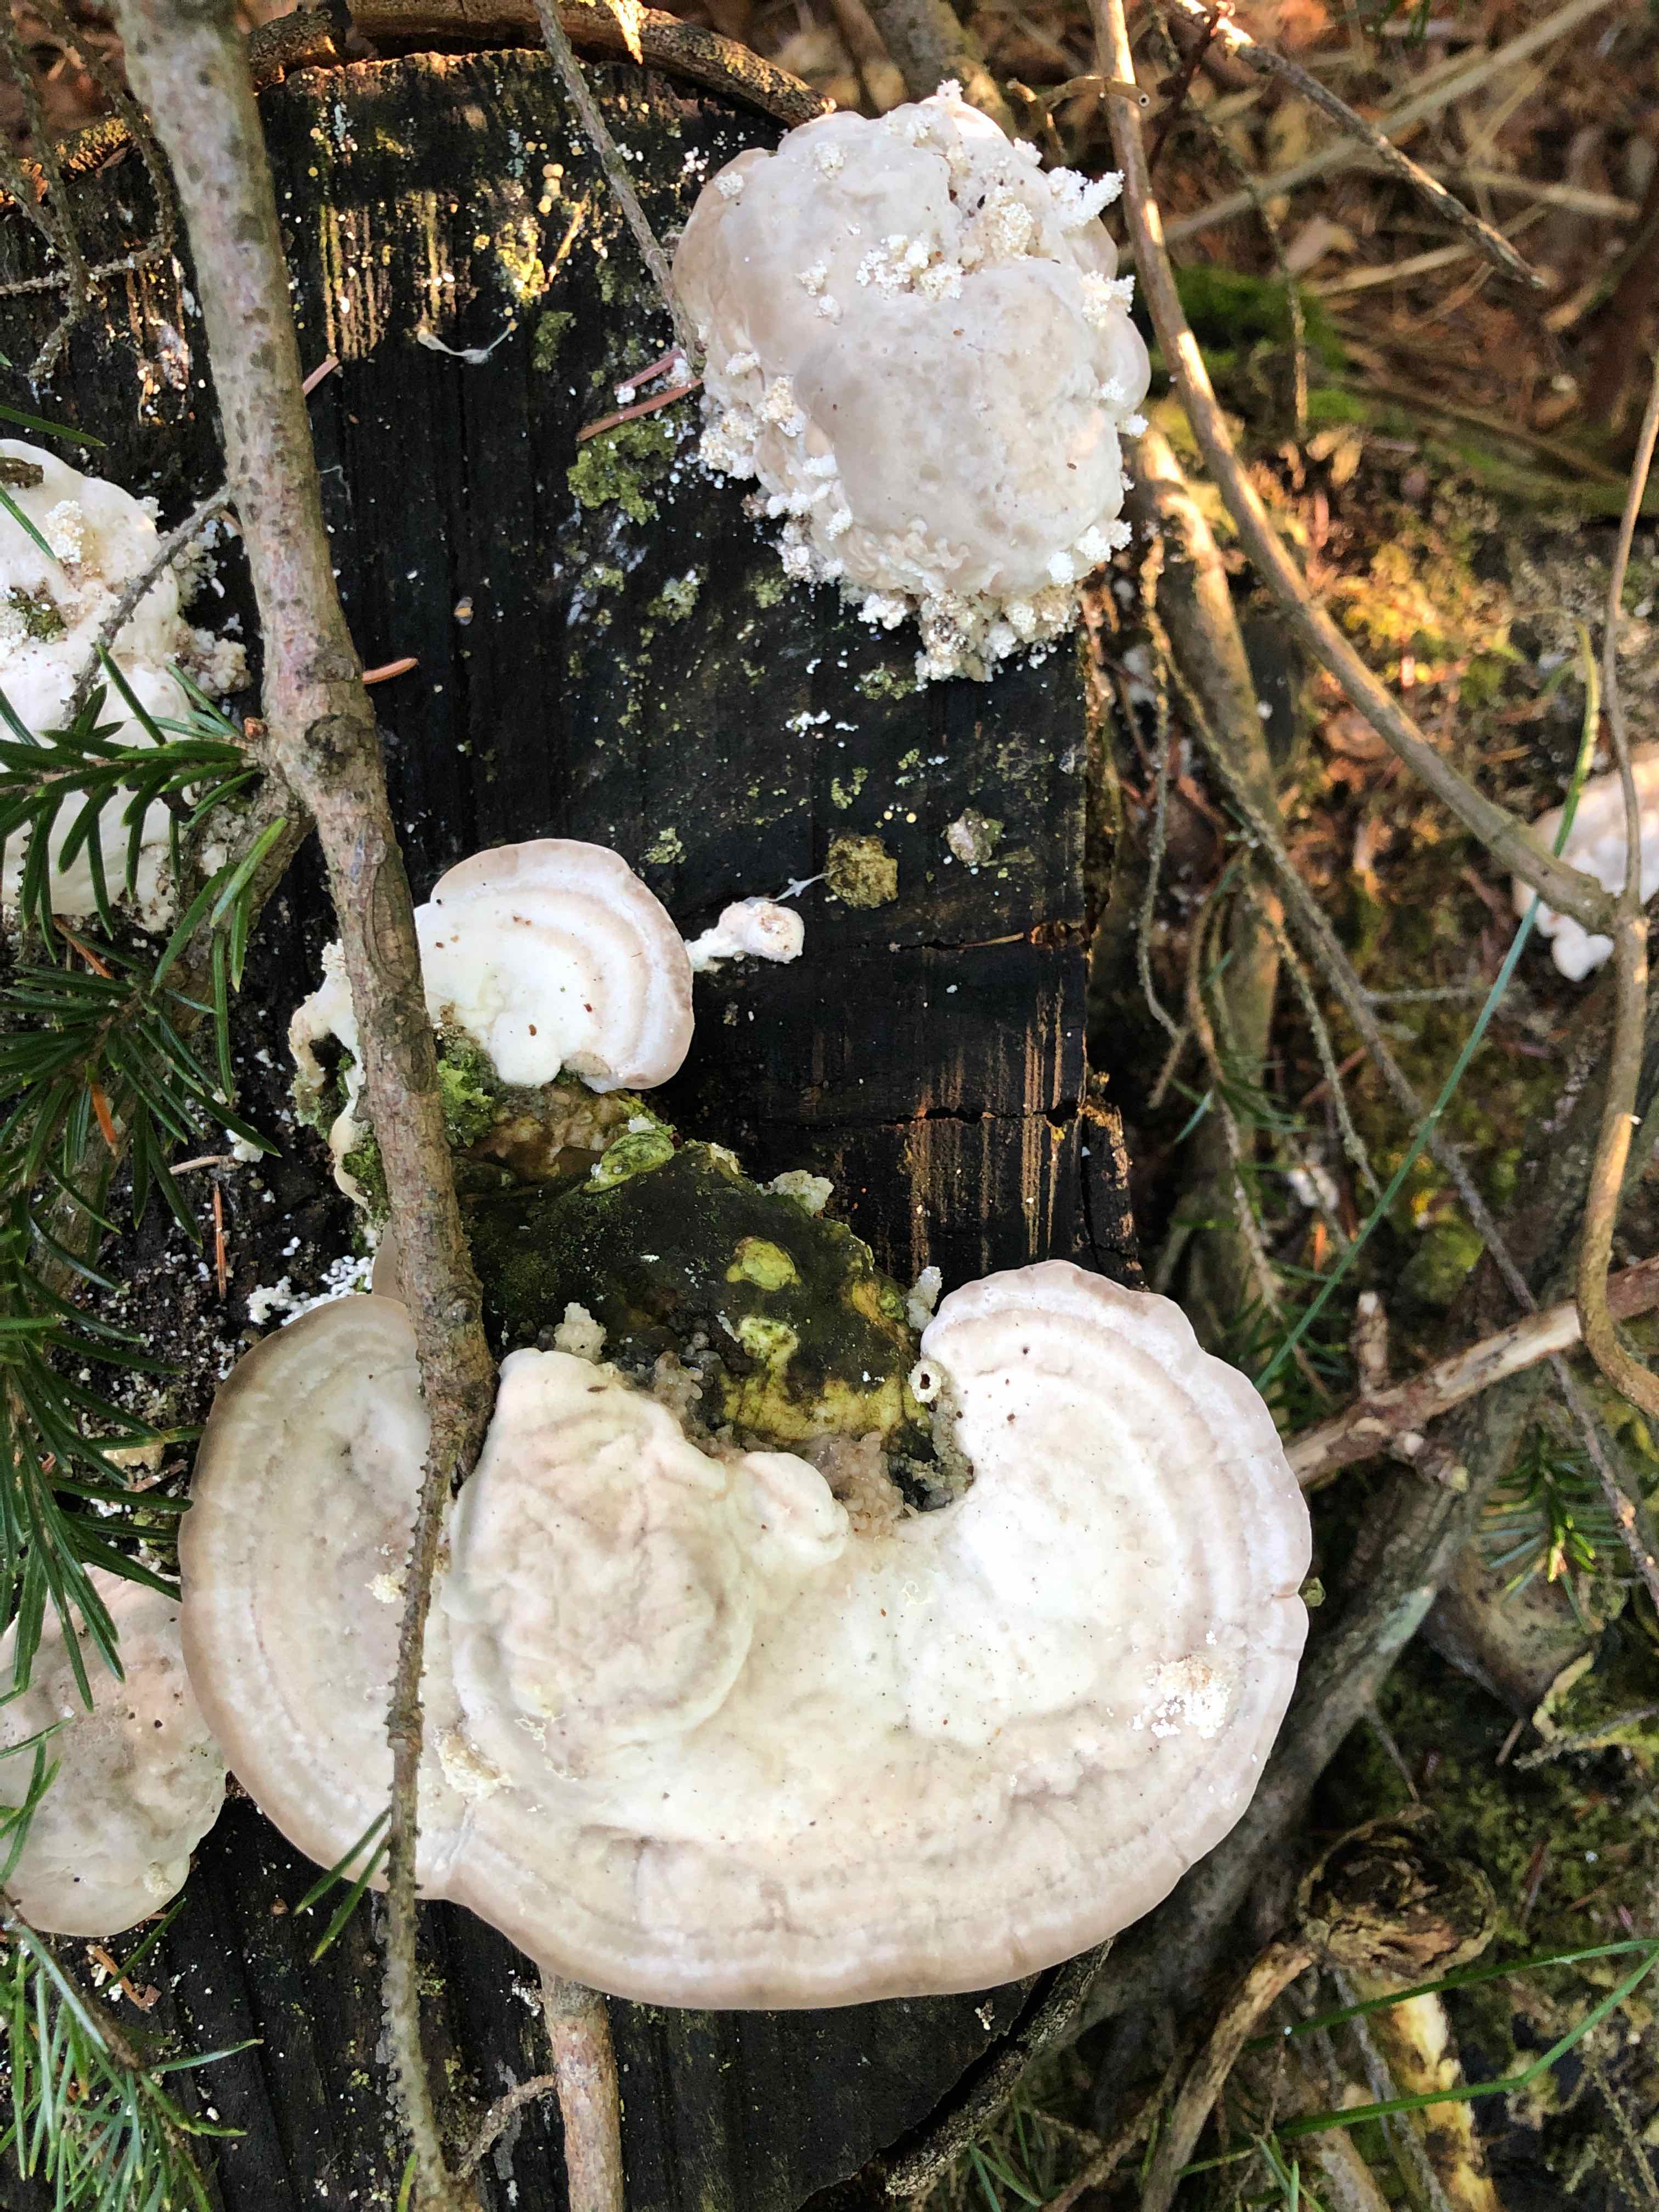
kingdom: Fungi
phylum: Basidiomycota
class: Agaricomycetes
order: Polyporales
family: Polyporaceae
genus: Trametes
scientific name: Trametes gibbosa
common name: puklet læderporesvamp
